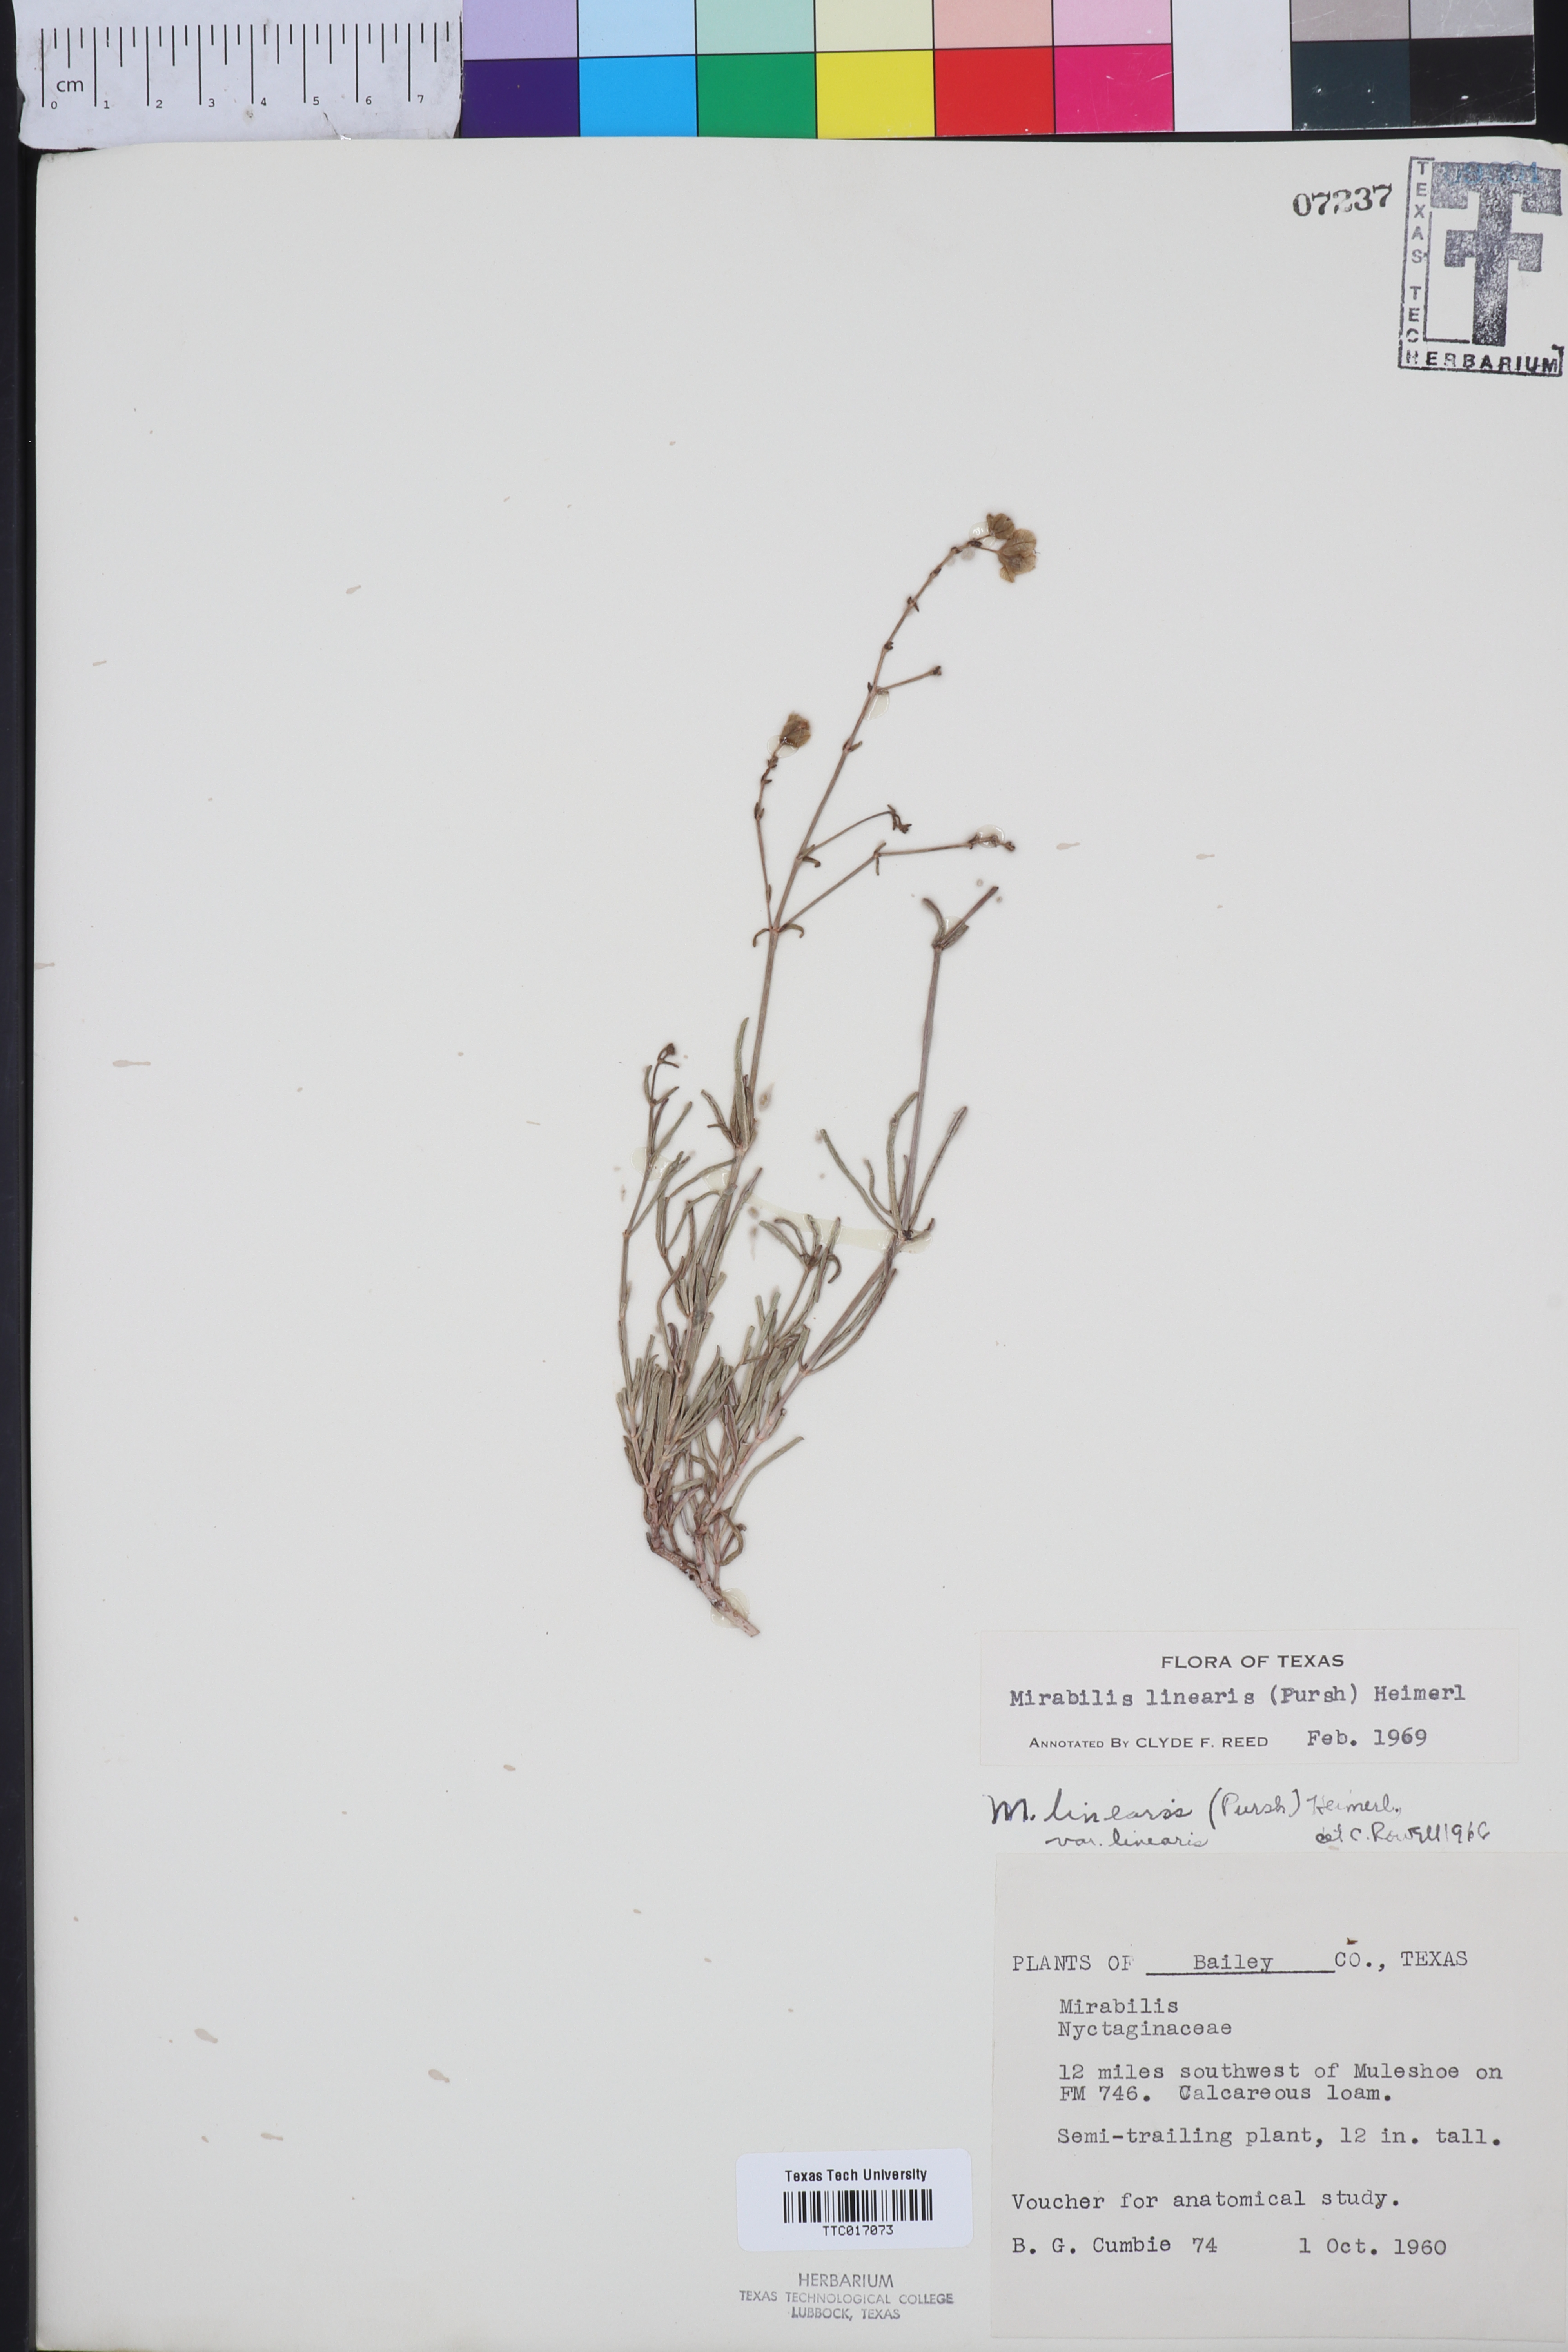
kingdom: Plantae
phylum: Tracheophyta
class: Magnoliopsida
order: Caryophyllales
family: Nyctaginaceae
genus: Mirabilis
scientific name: Mirabilis linearis
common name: Linear-leaved four-o'clock
